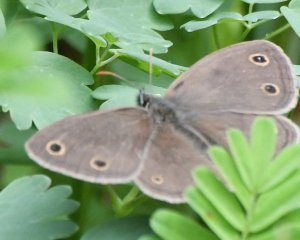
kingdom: Animalia
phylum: Arthropoda
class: Insecta
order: Lepidoptera
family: Nymphalidae
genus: Euptychia
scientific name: Euptychia cymela
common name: Little Wood Satyr
